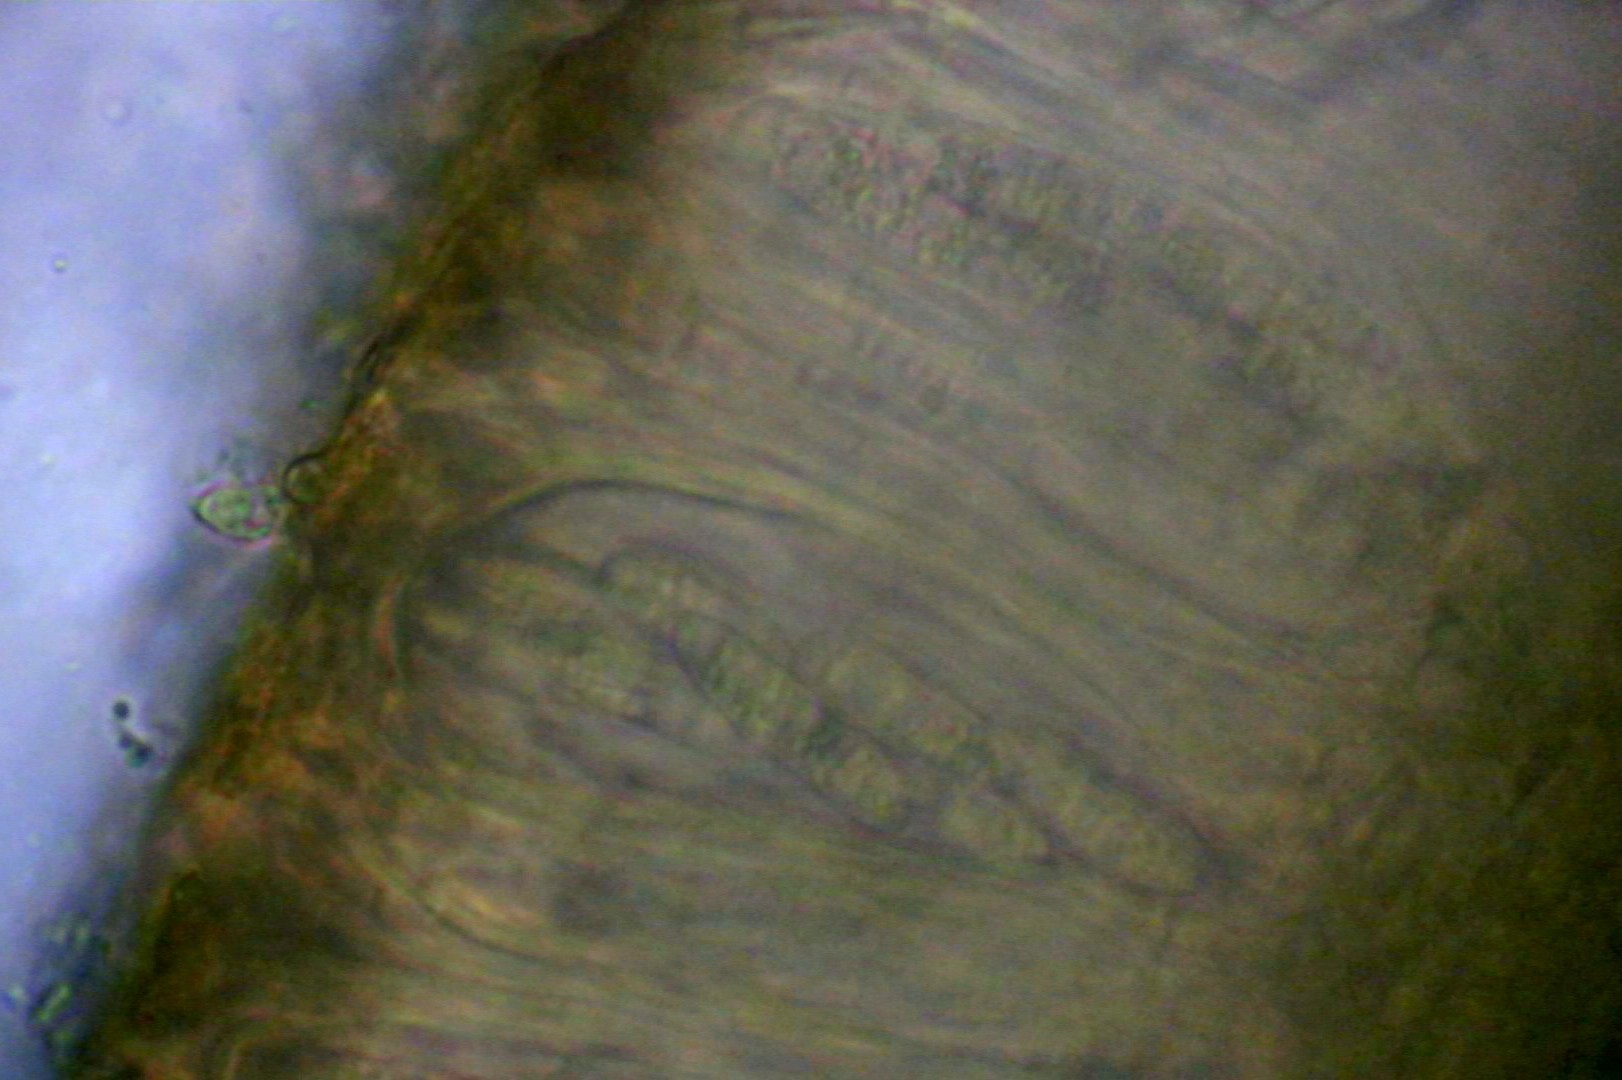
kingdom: Fungi
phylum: Ascomycota
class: Lecanoromycetes
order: Peltigerales
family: Collemataceae
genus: Enchylium
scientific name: Enchylium tenax
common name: tyk bævrelav
